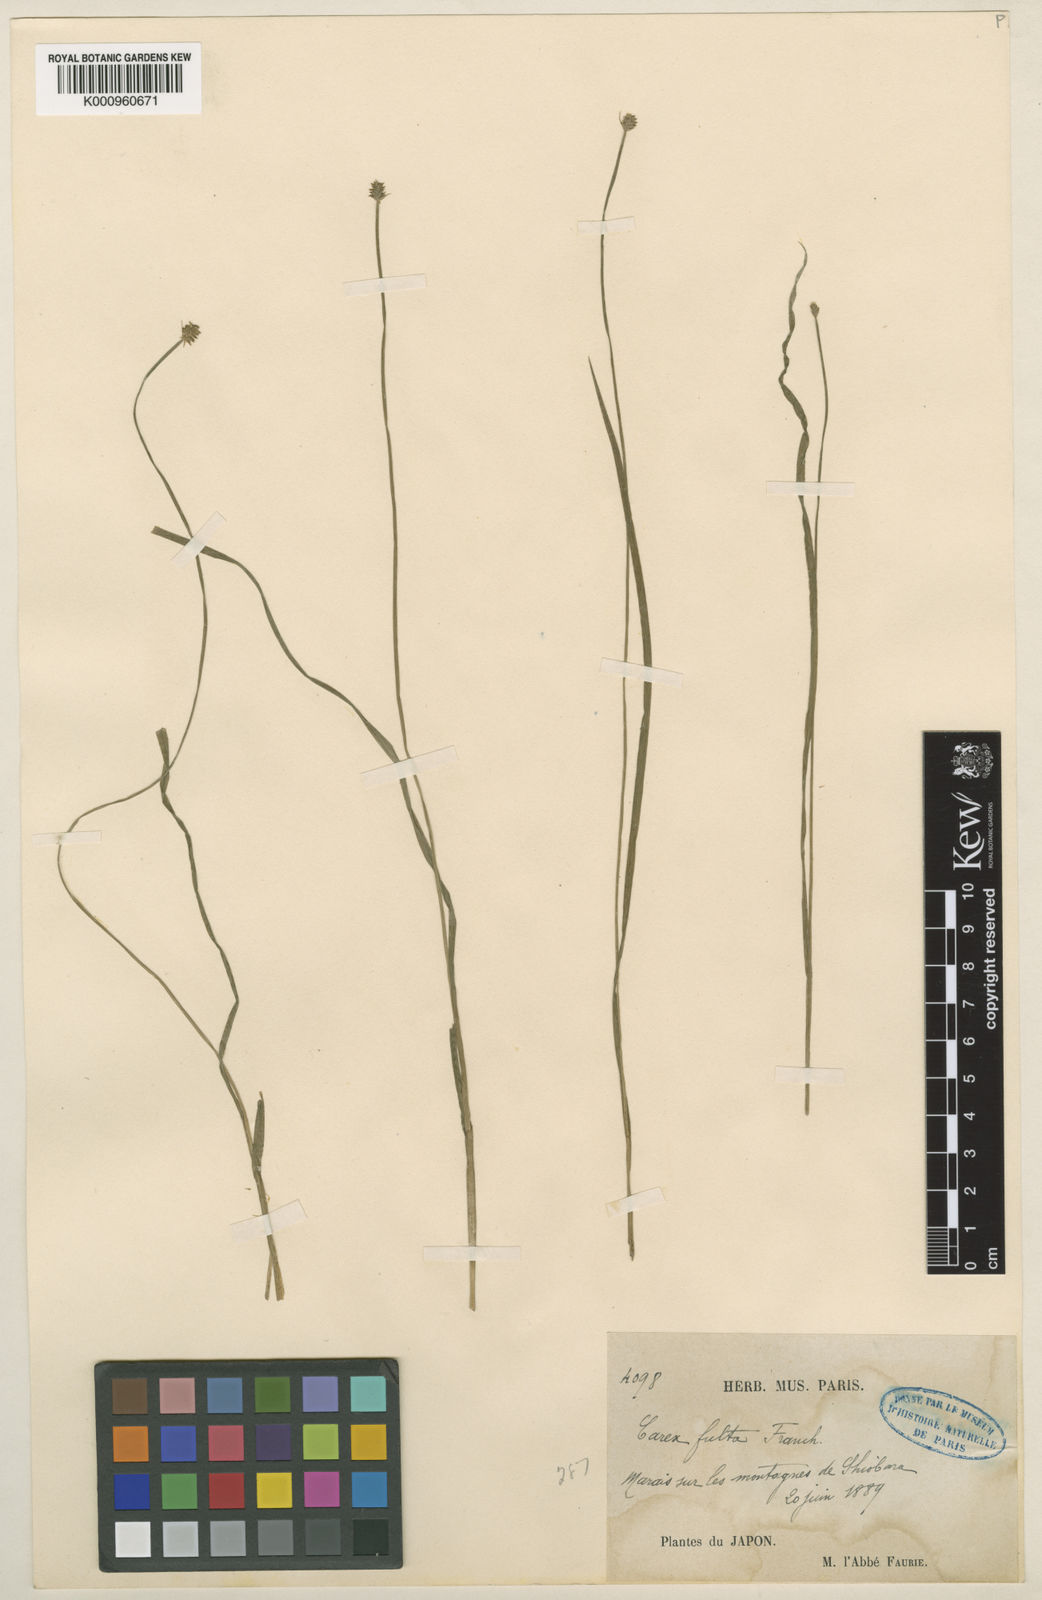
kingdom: Plantae
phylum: Tracheophyta
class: Liliopsida
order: Poales
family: Cyperaceae
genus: Carex
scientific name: Carex fulta
